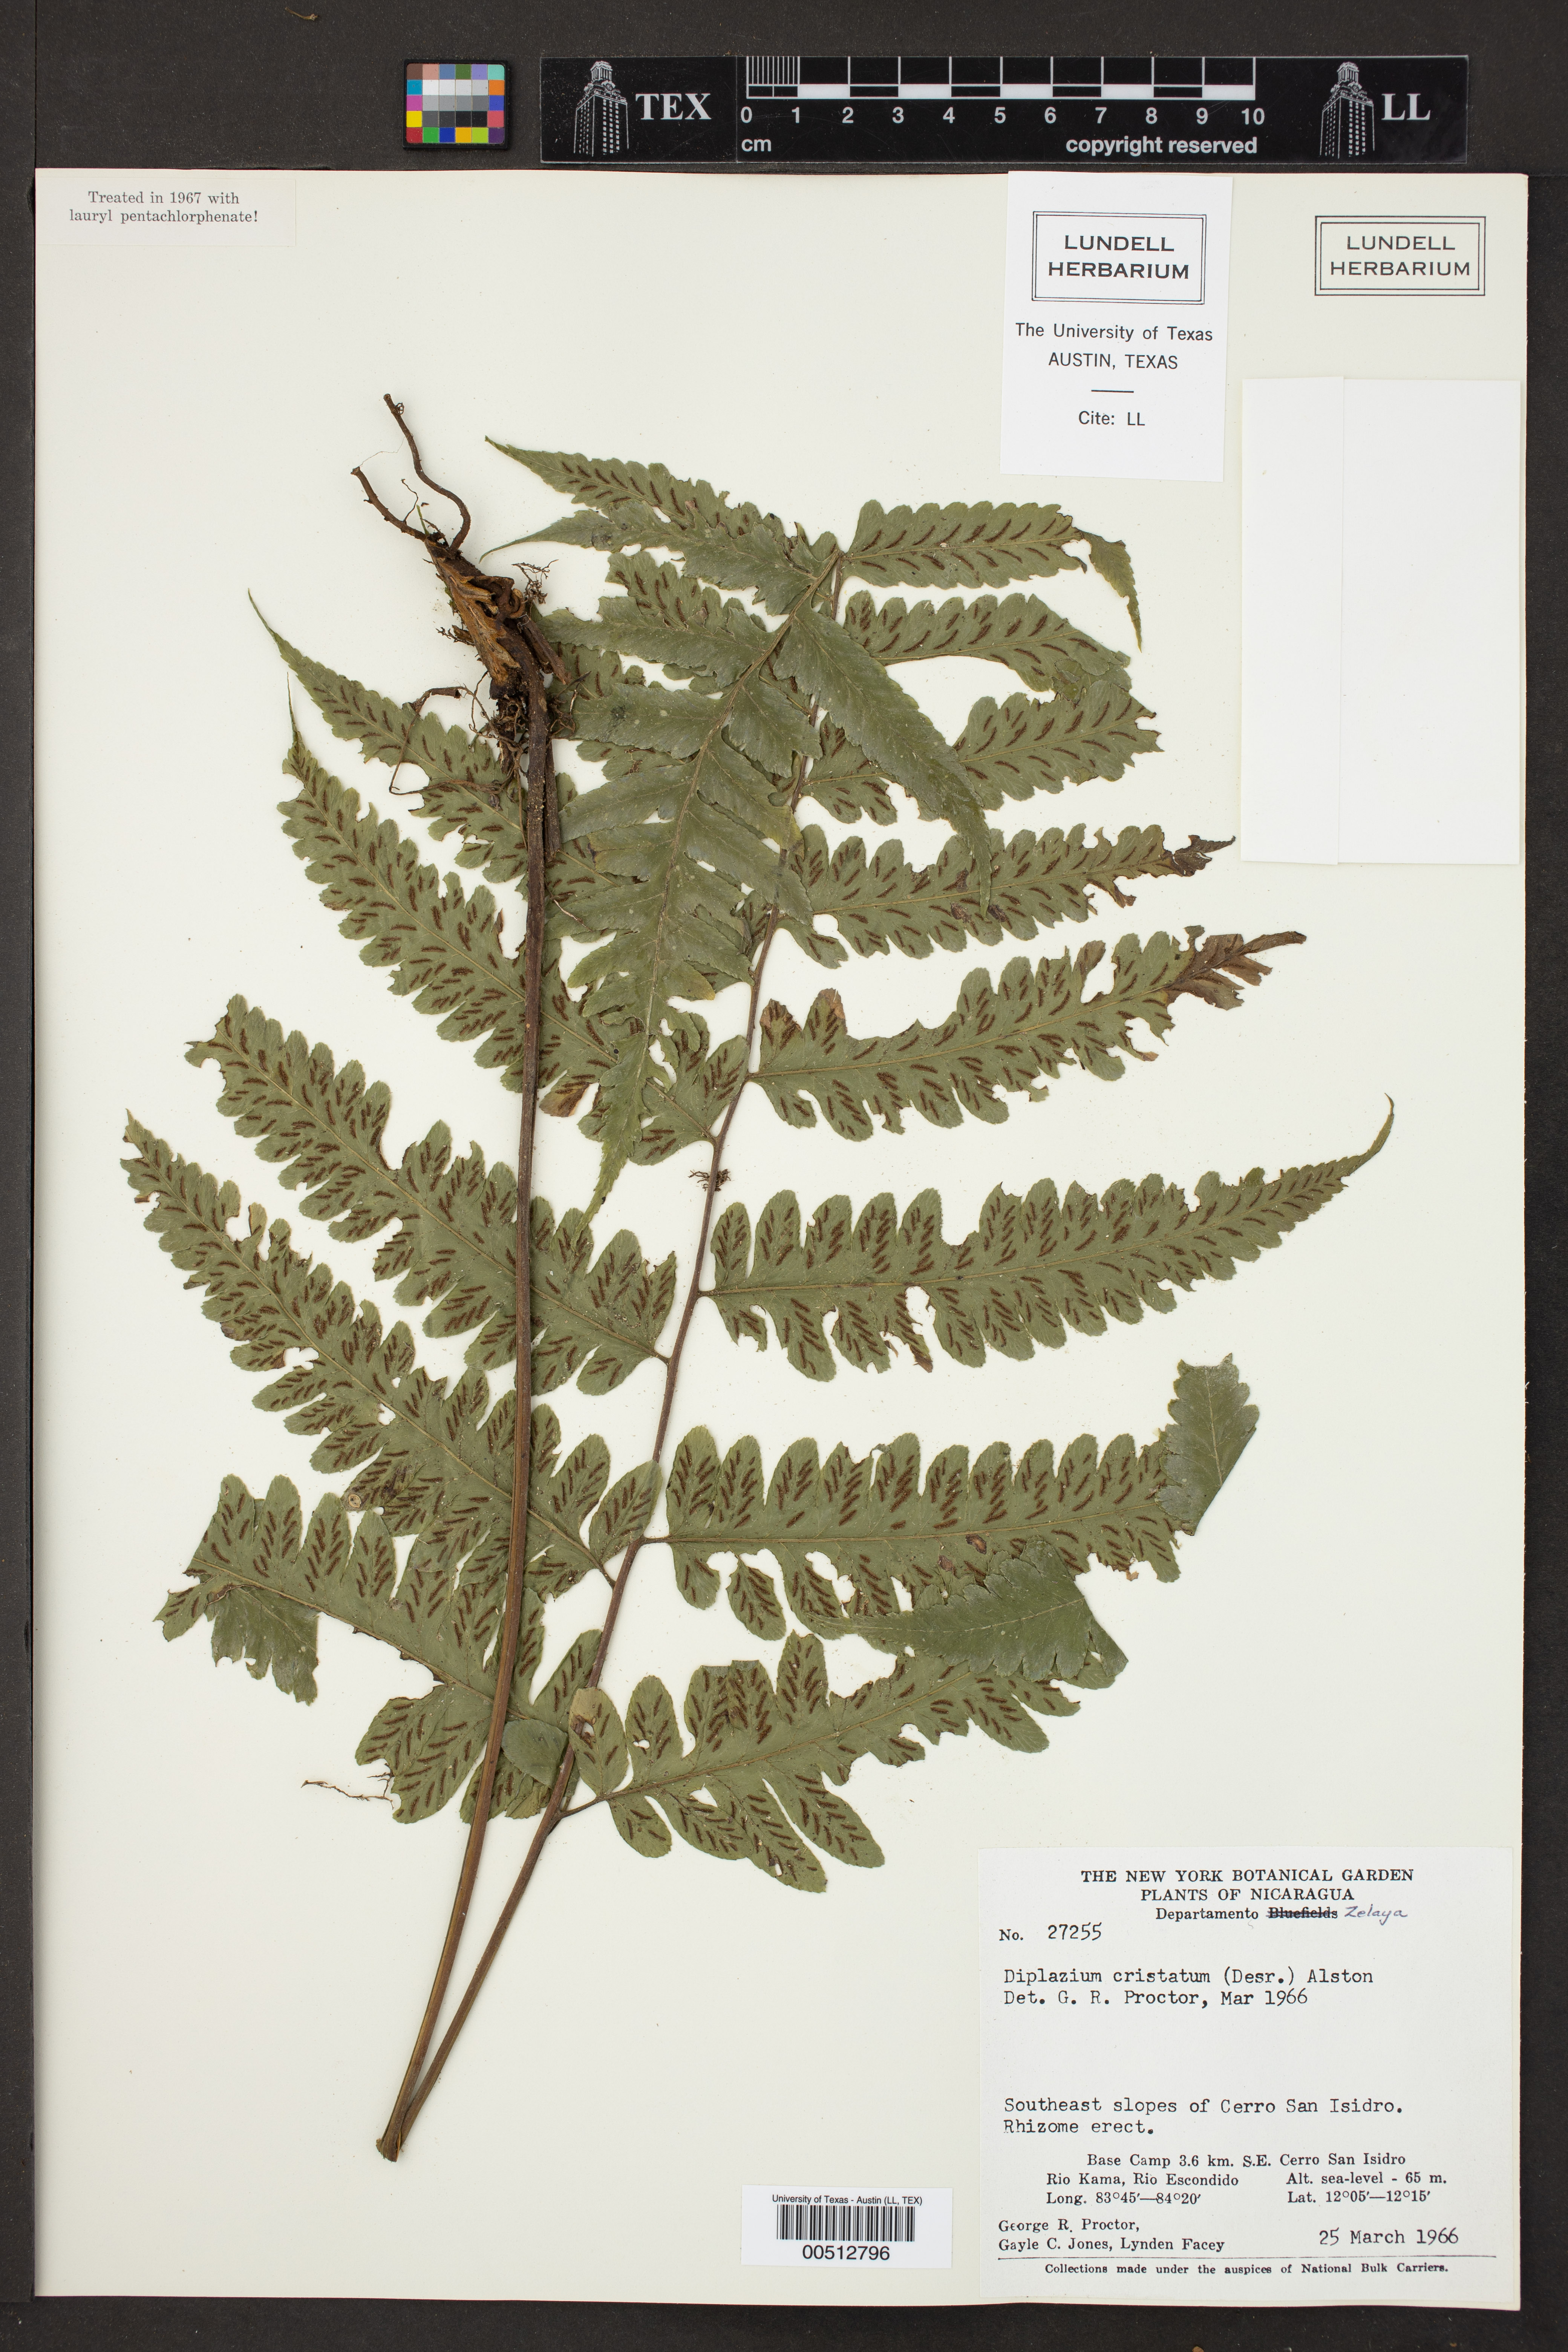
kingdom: Plantae
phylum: Tracheophyta
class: Polypodiopsida
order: Polypodiales
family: Athyriaceae
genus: Diplazium
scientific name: Diplazium cristatum
